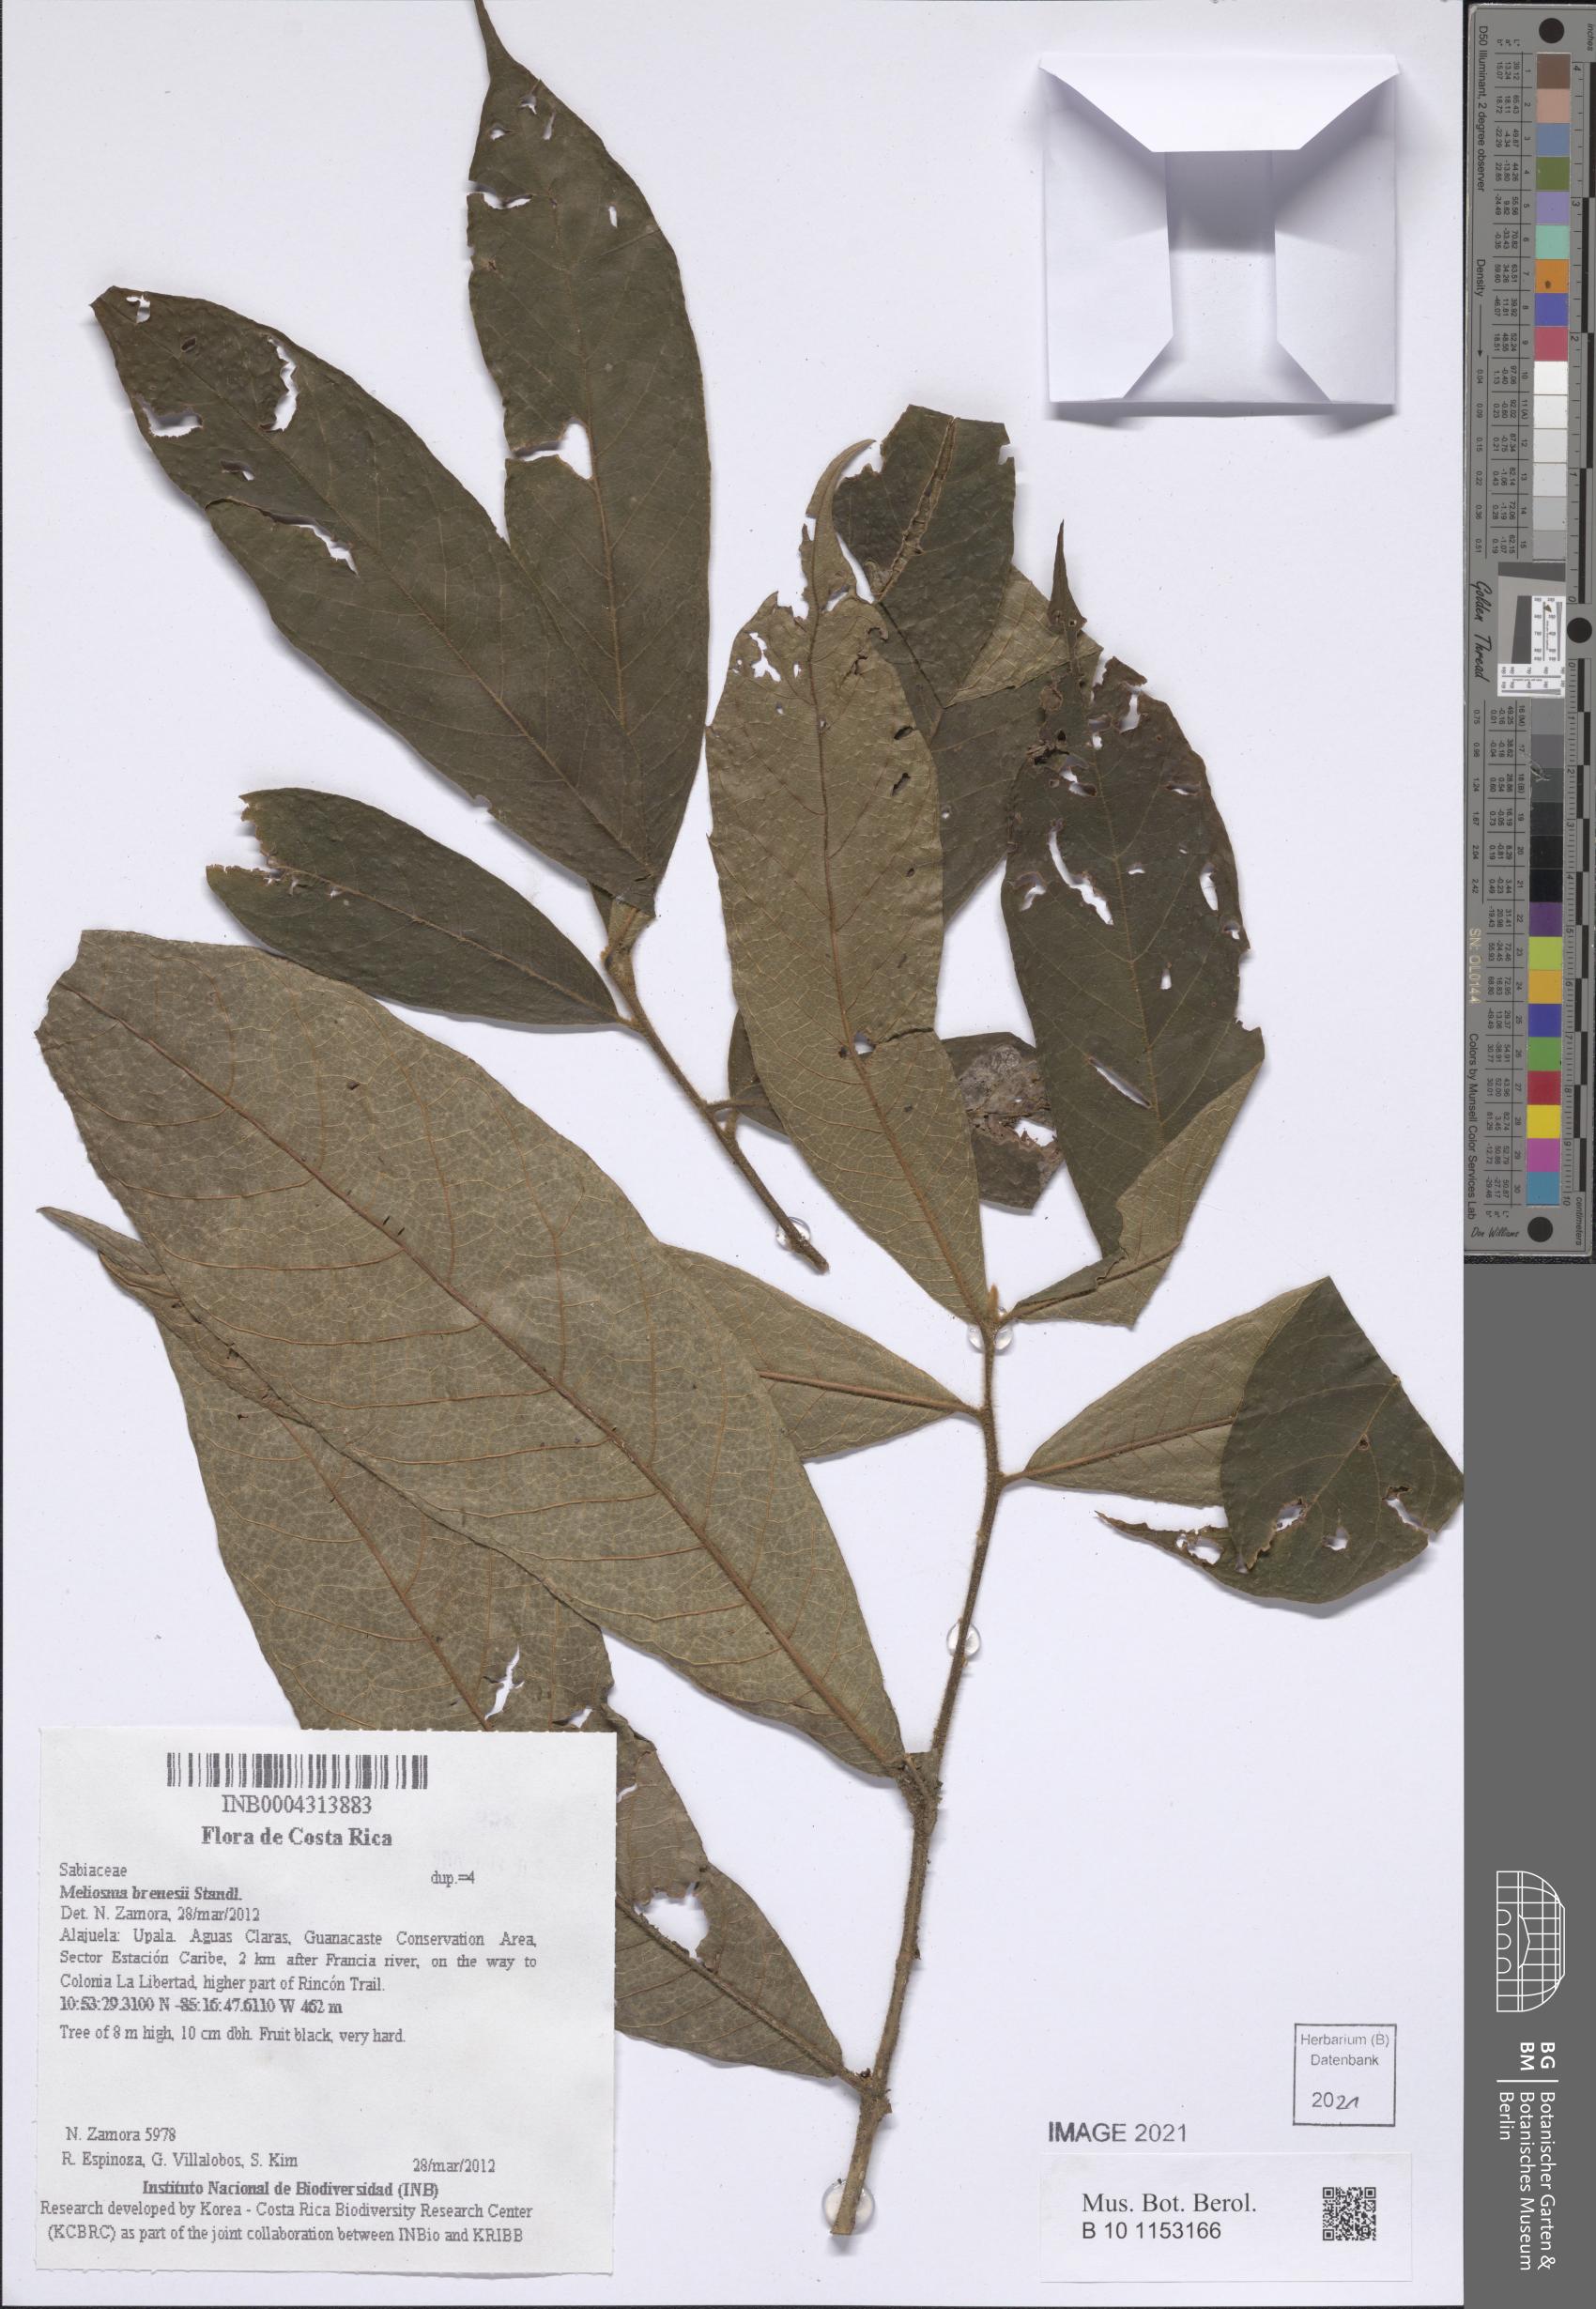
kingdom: Plantae
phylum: Tracheophyta
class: Magnoliopsida
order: Proteales
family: Sabiaceae
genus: Meliosma
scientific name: Meliosma brenesii
